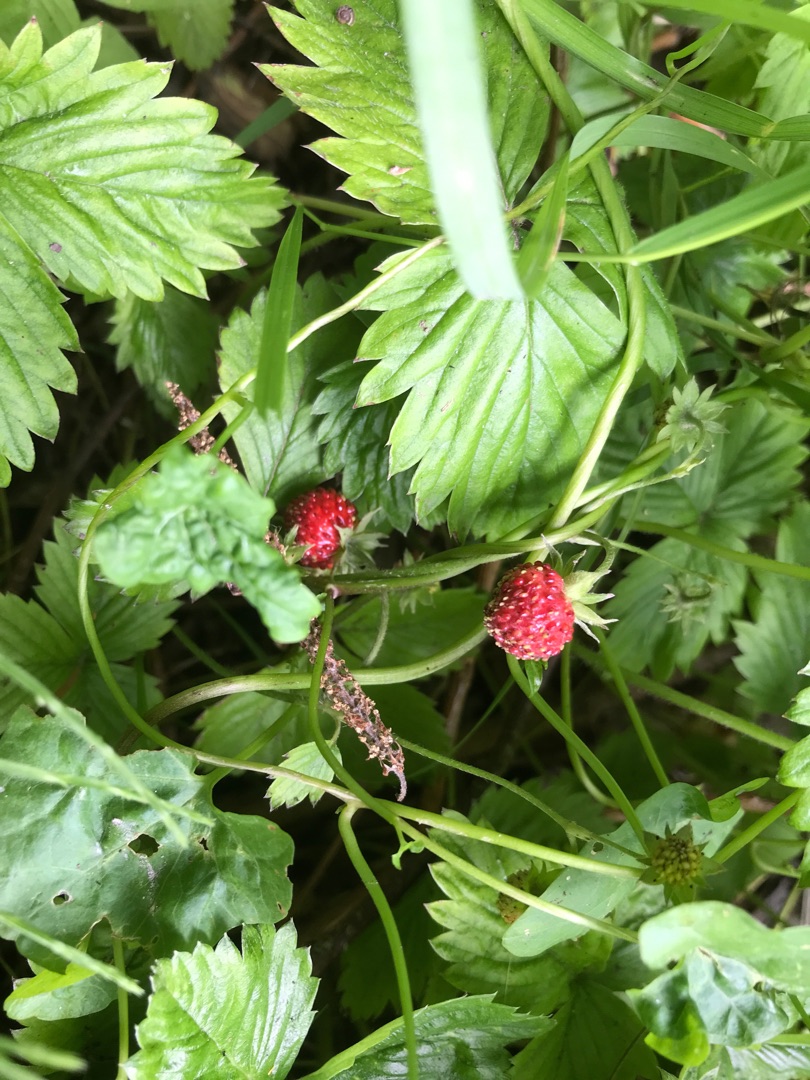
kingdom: Plantae
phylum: Tracheophyta
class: Magnoliopsida
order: Rosales
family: Rosaceae
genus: Fragaria
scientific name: Fragaria vesca
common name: Skov-jordbær
